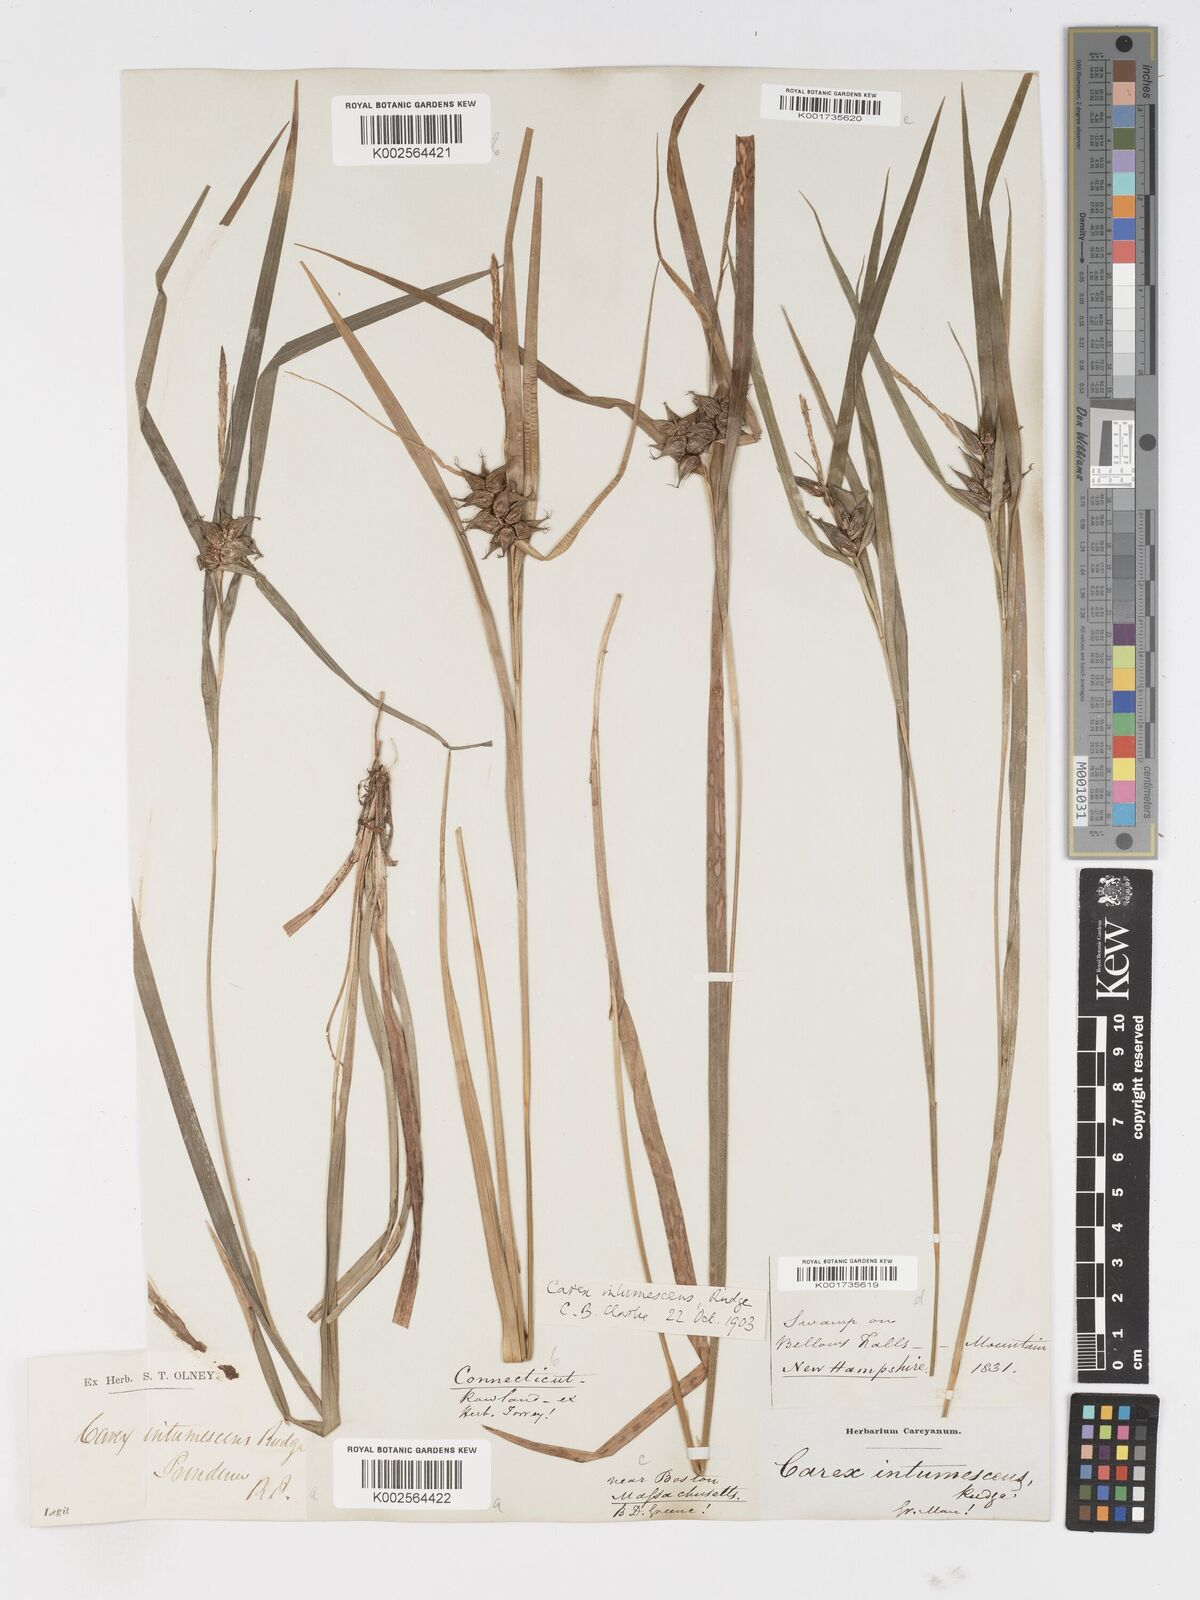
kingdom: Plantae
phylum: Tracheophyta
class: Liliopsida
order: Poales
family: Cyperaceae
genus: Carex
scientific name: Carex intumescens
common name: Greater bladder sedge
